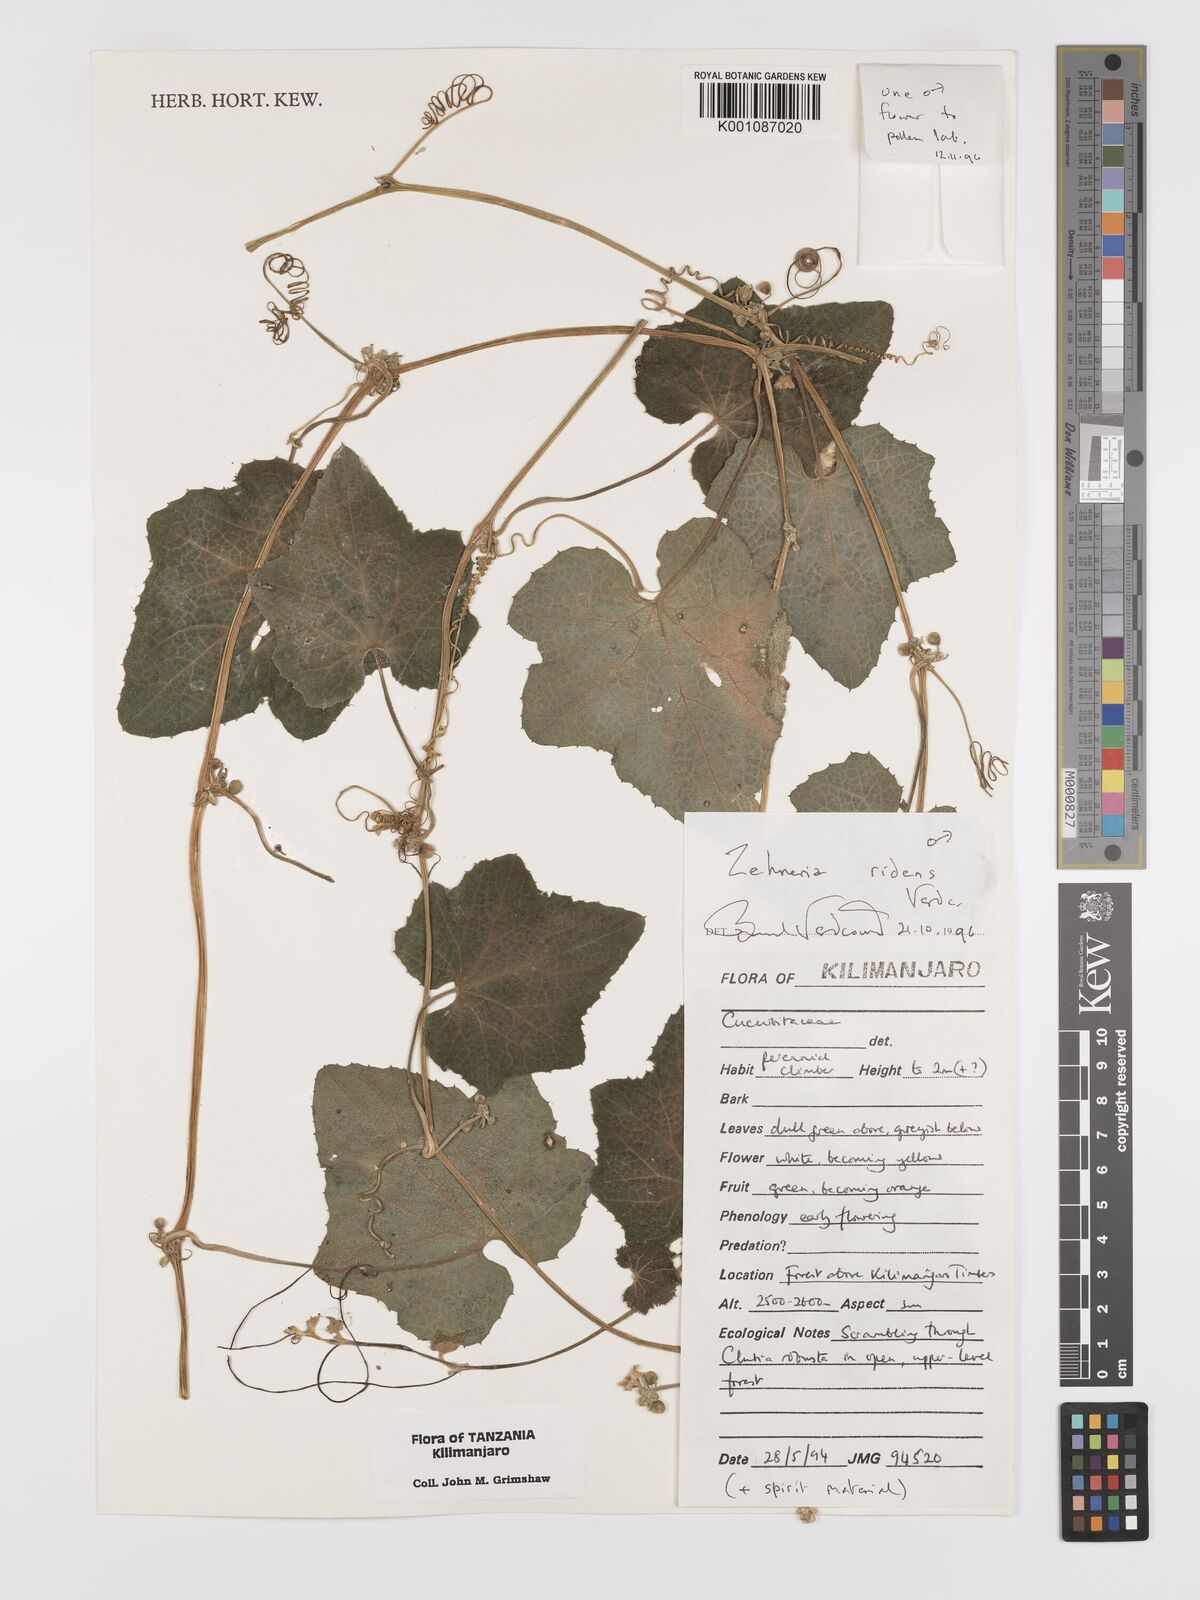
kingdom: Plantae
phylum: Tracheophyta
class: Magnoliopsida
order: Cucurbitales
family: Cucurbitaceae
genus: Zehneria
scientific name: Zehneria ridens
